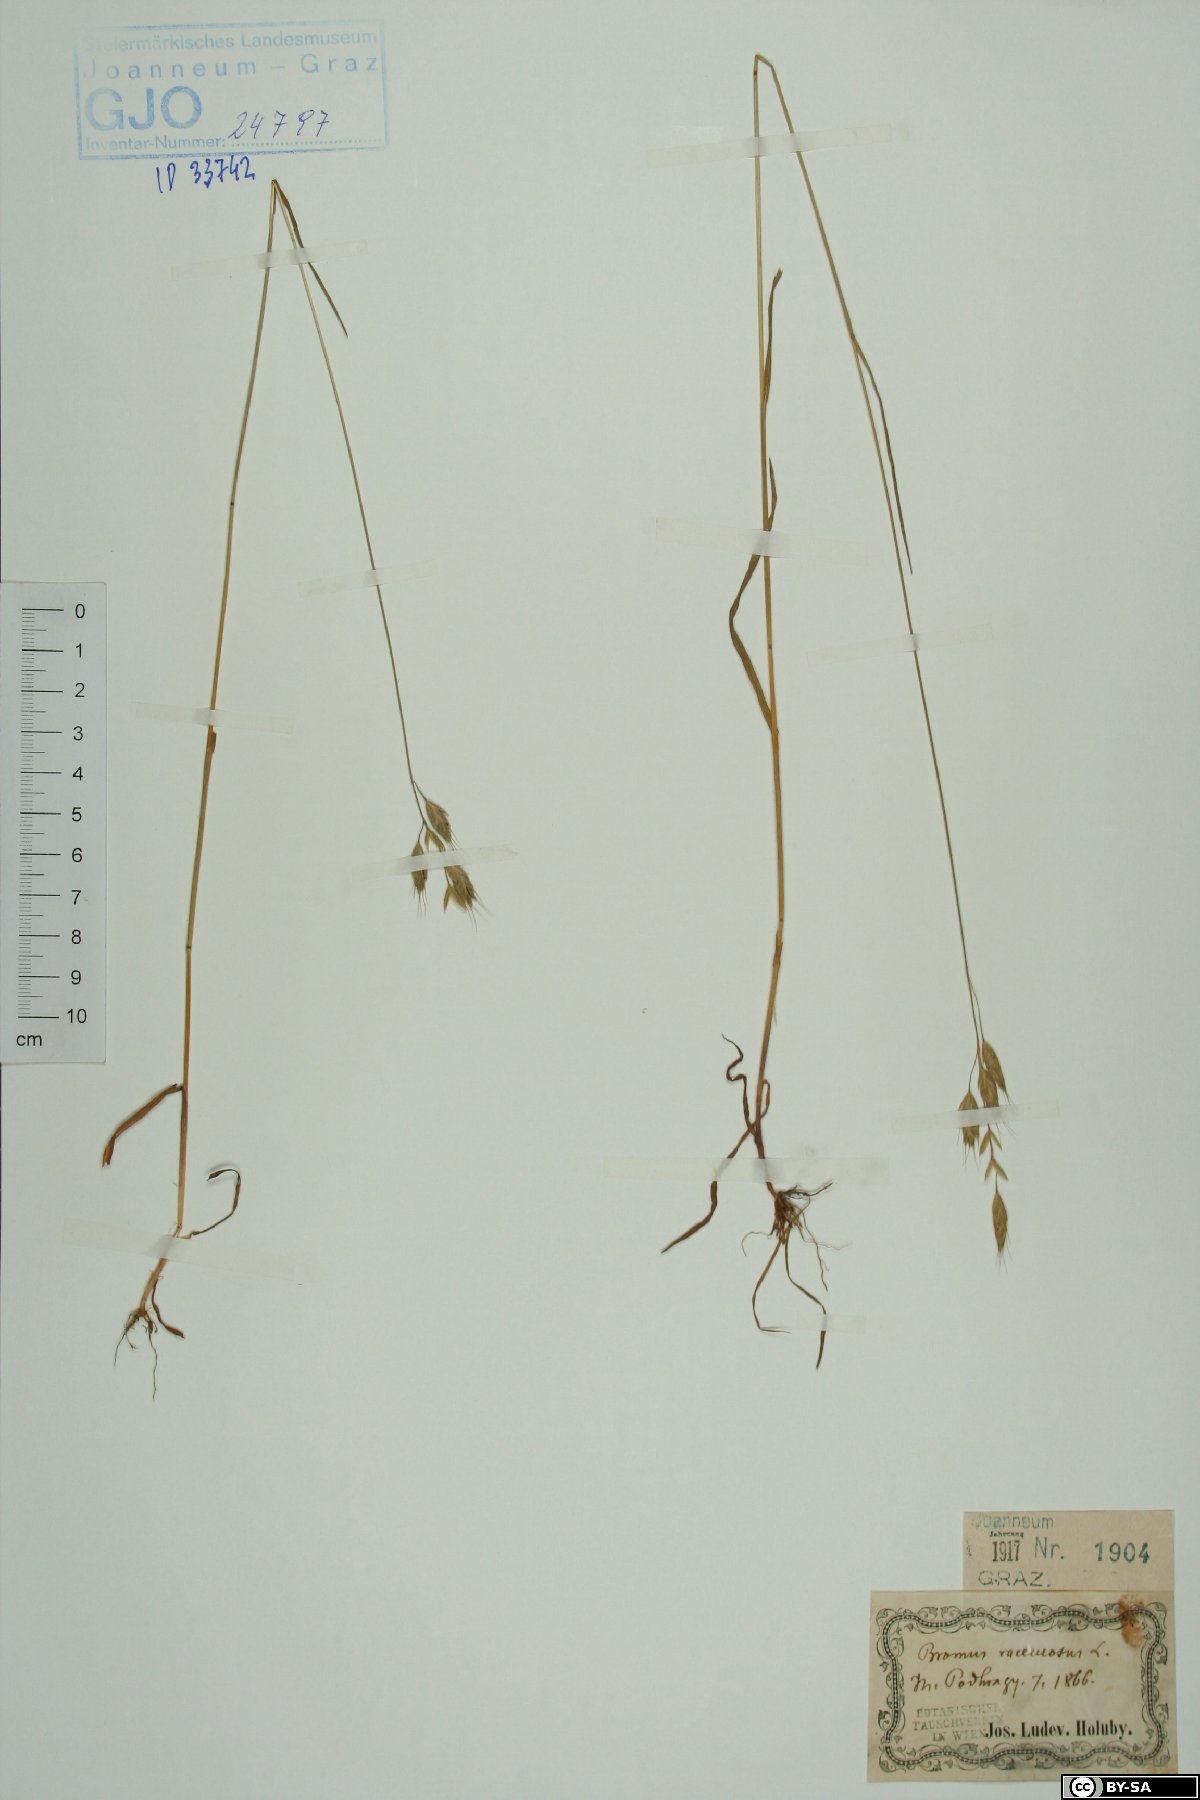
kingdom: Plantae
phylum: Tracheophyta
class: Liliopsida
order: Poales
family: Poaceae
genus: Bromus
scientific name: Bromus racemosus
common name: Bald brome
